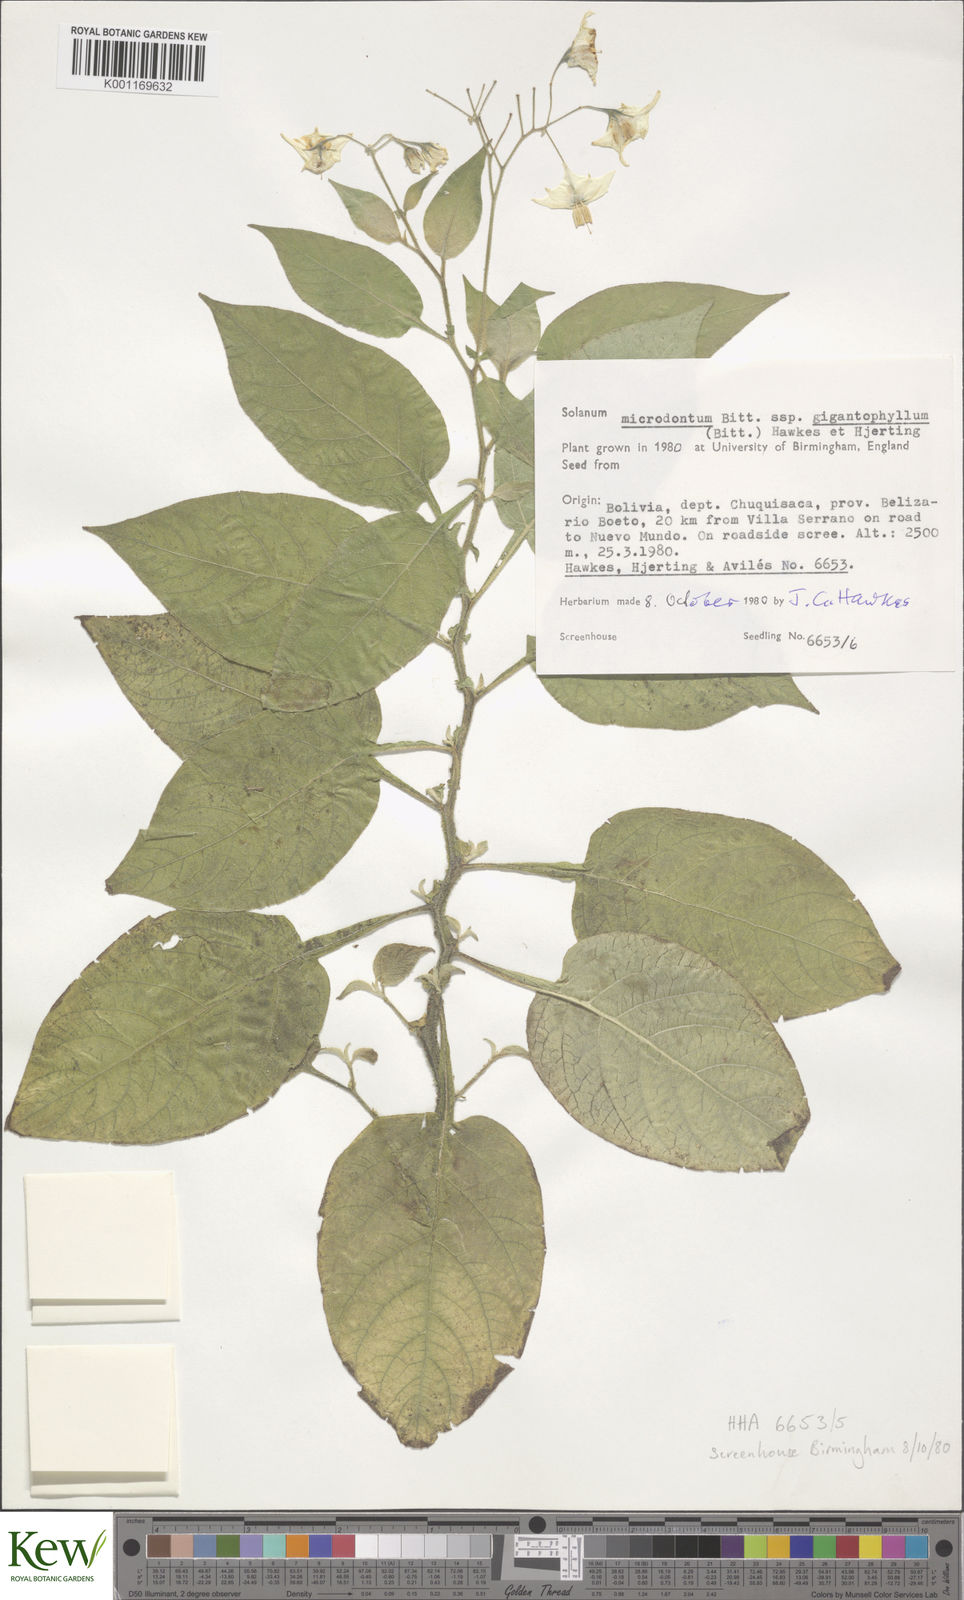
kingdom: Plantae
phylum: Tracheophyta
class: Magnoliopsida
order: Solanales
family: Solanaceae
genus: Solanum
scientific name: Solanum microdontum
